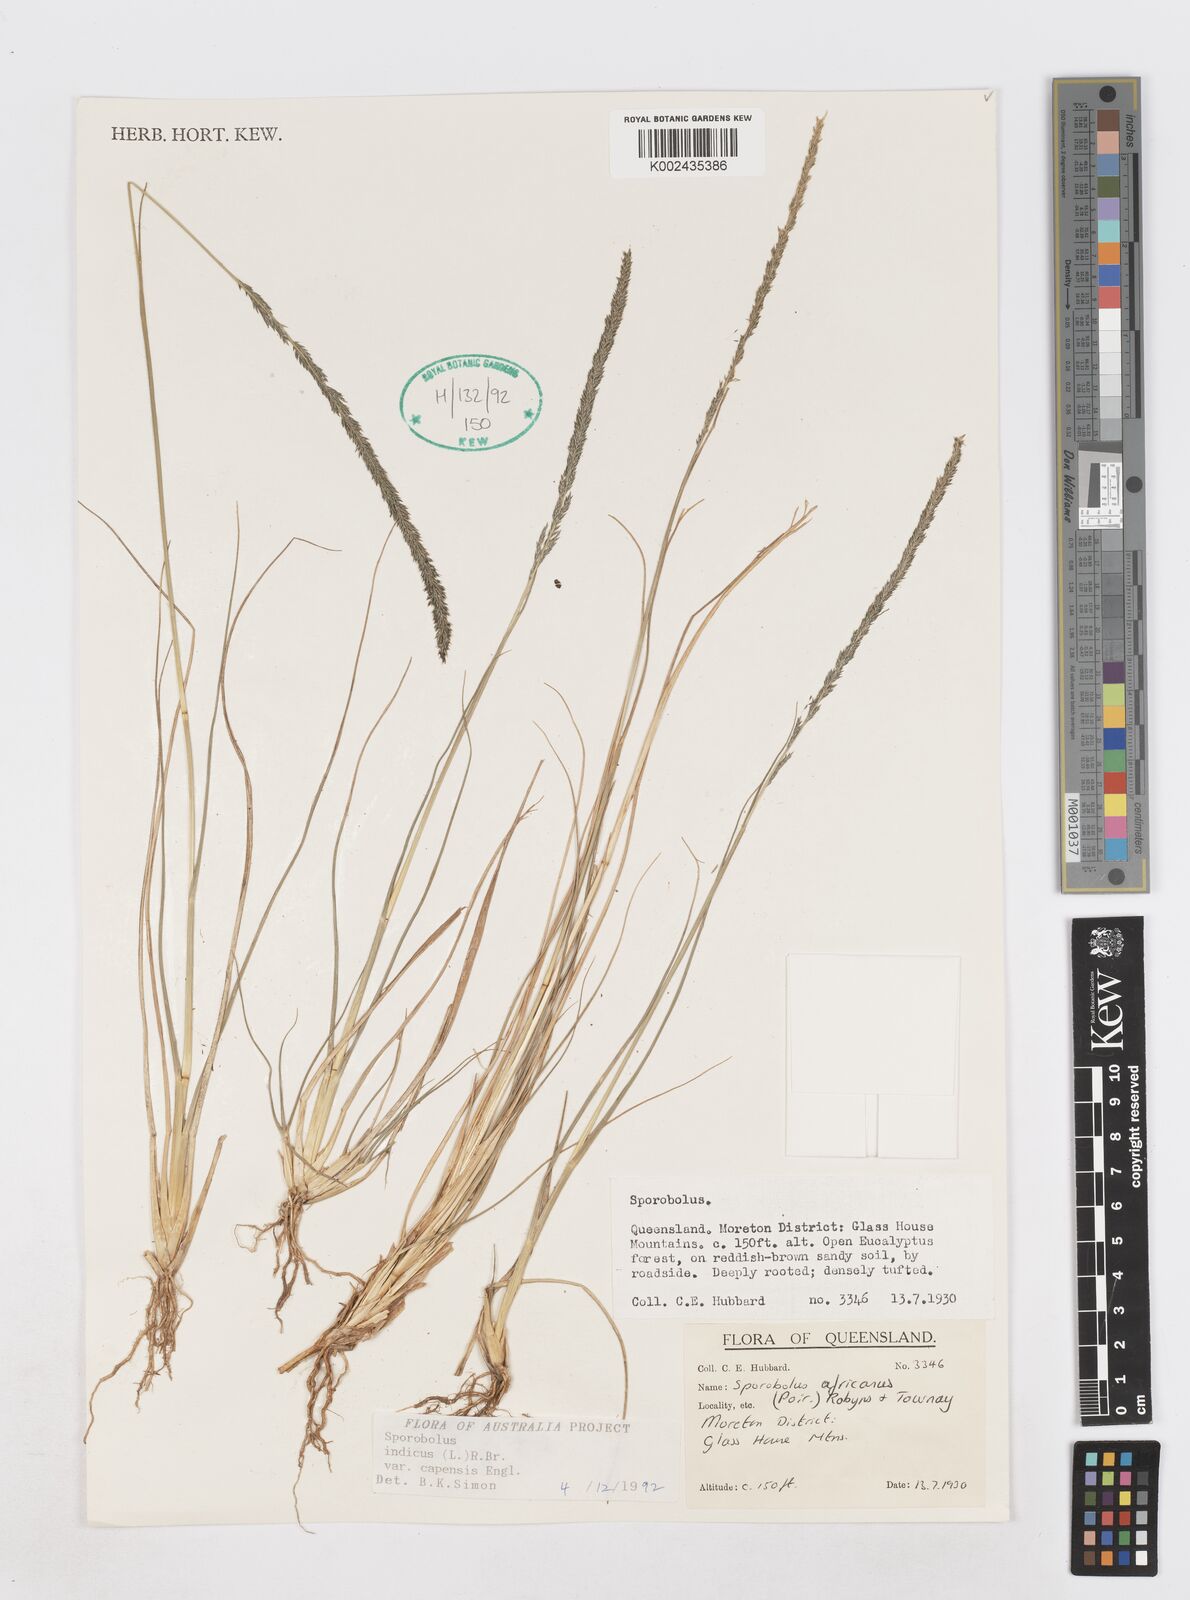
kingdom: Plantae
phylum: Tracheophyta
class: Liliopsida
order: Poales
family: Poaceae
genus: Sporobolus
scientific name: Sporobolus africanus
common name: African dropseed
